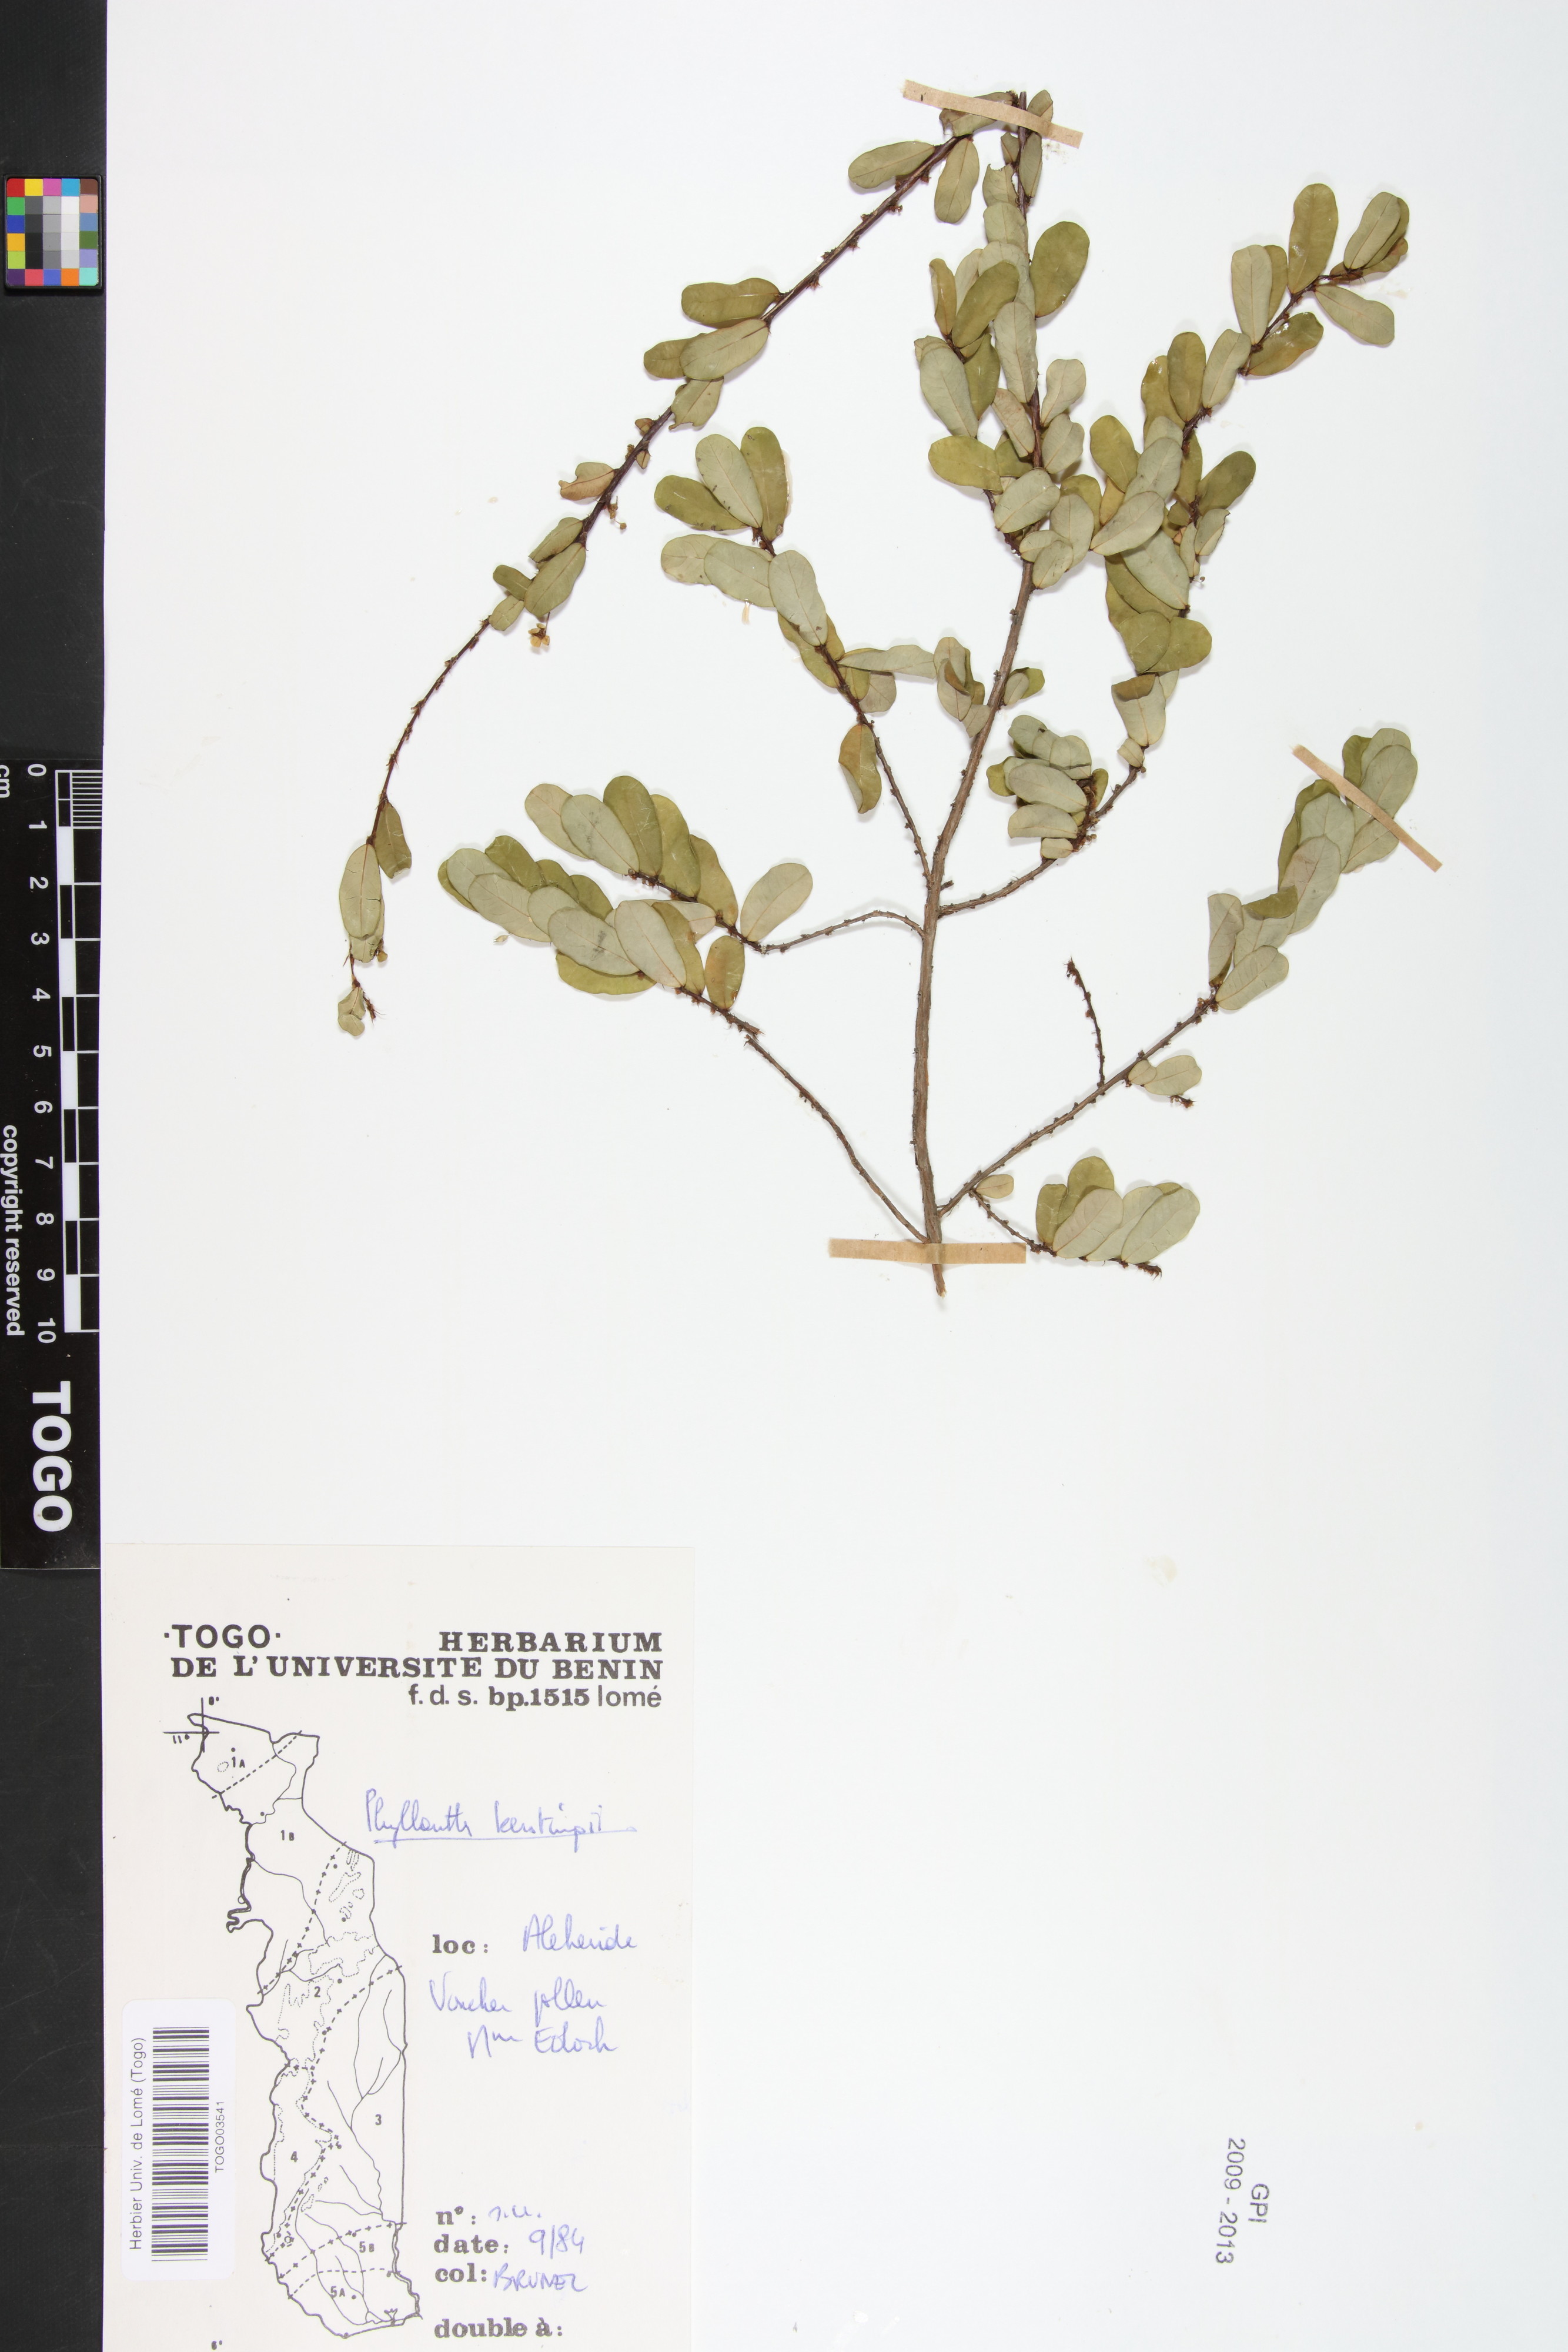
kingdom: Plantae
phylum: Tracheophyta
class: Magnoliopsida
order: Malpighiales
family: Phyllanthaceae
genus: Phyllanthus
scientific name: Phyllanthus kerstingii
